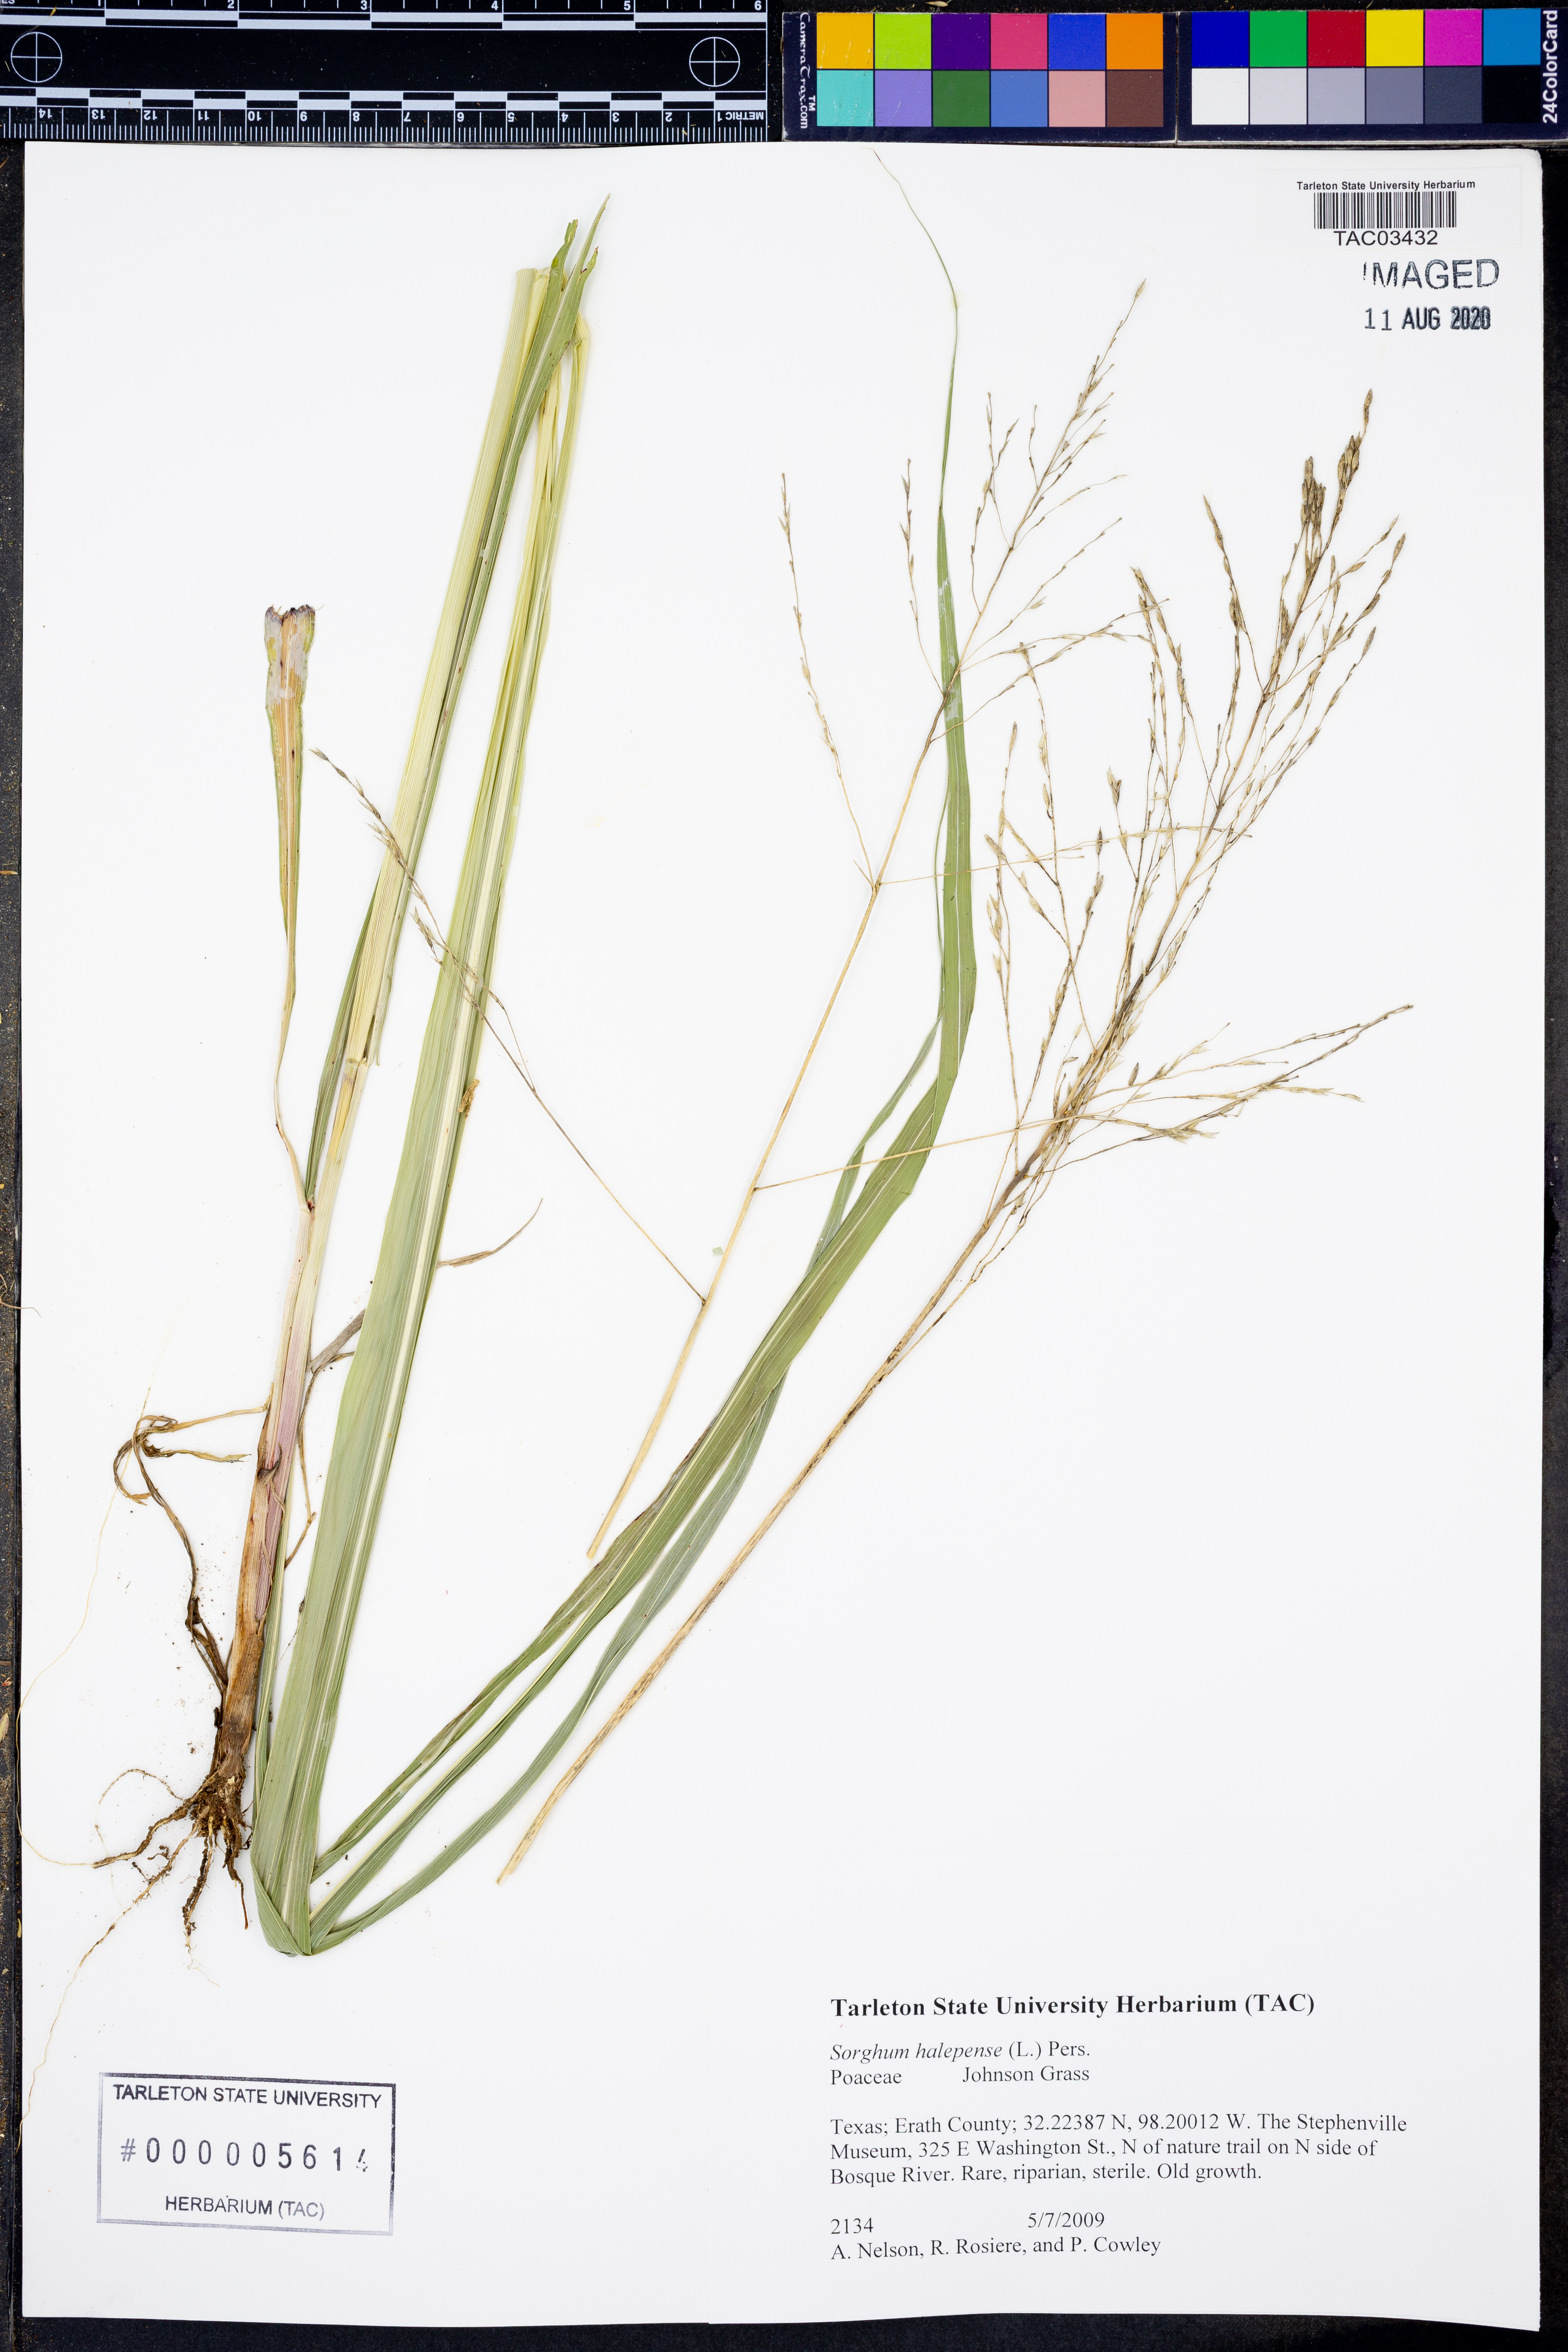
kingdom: Plantae
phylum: Tracheophyta
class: Liliopsida
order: Poales
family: Poaceae
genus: Sorghum
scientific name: Sorghum halepense
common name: Johnson-grass
